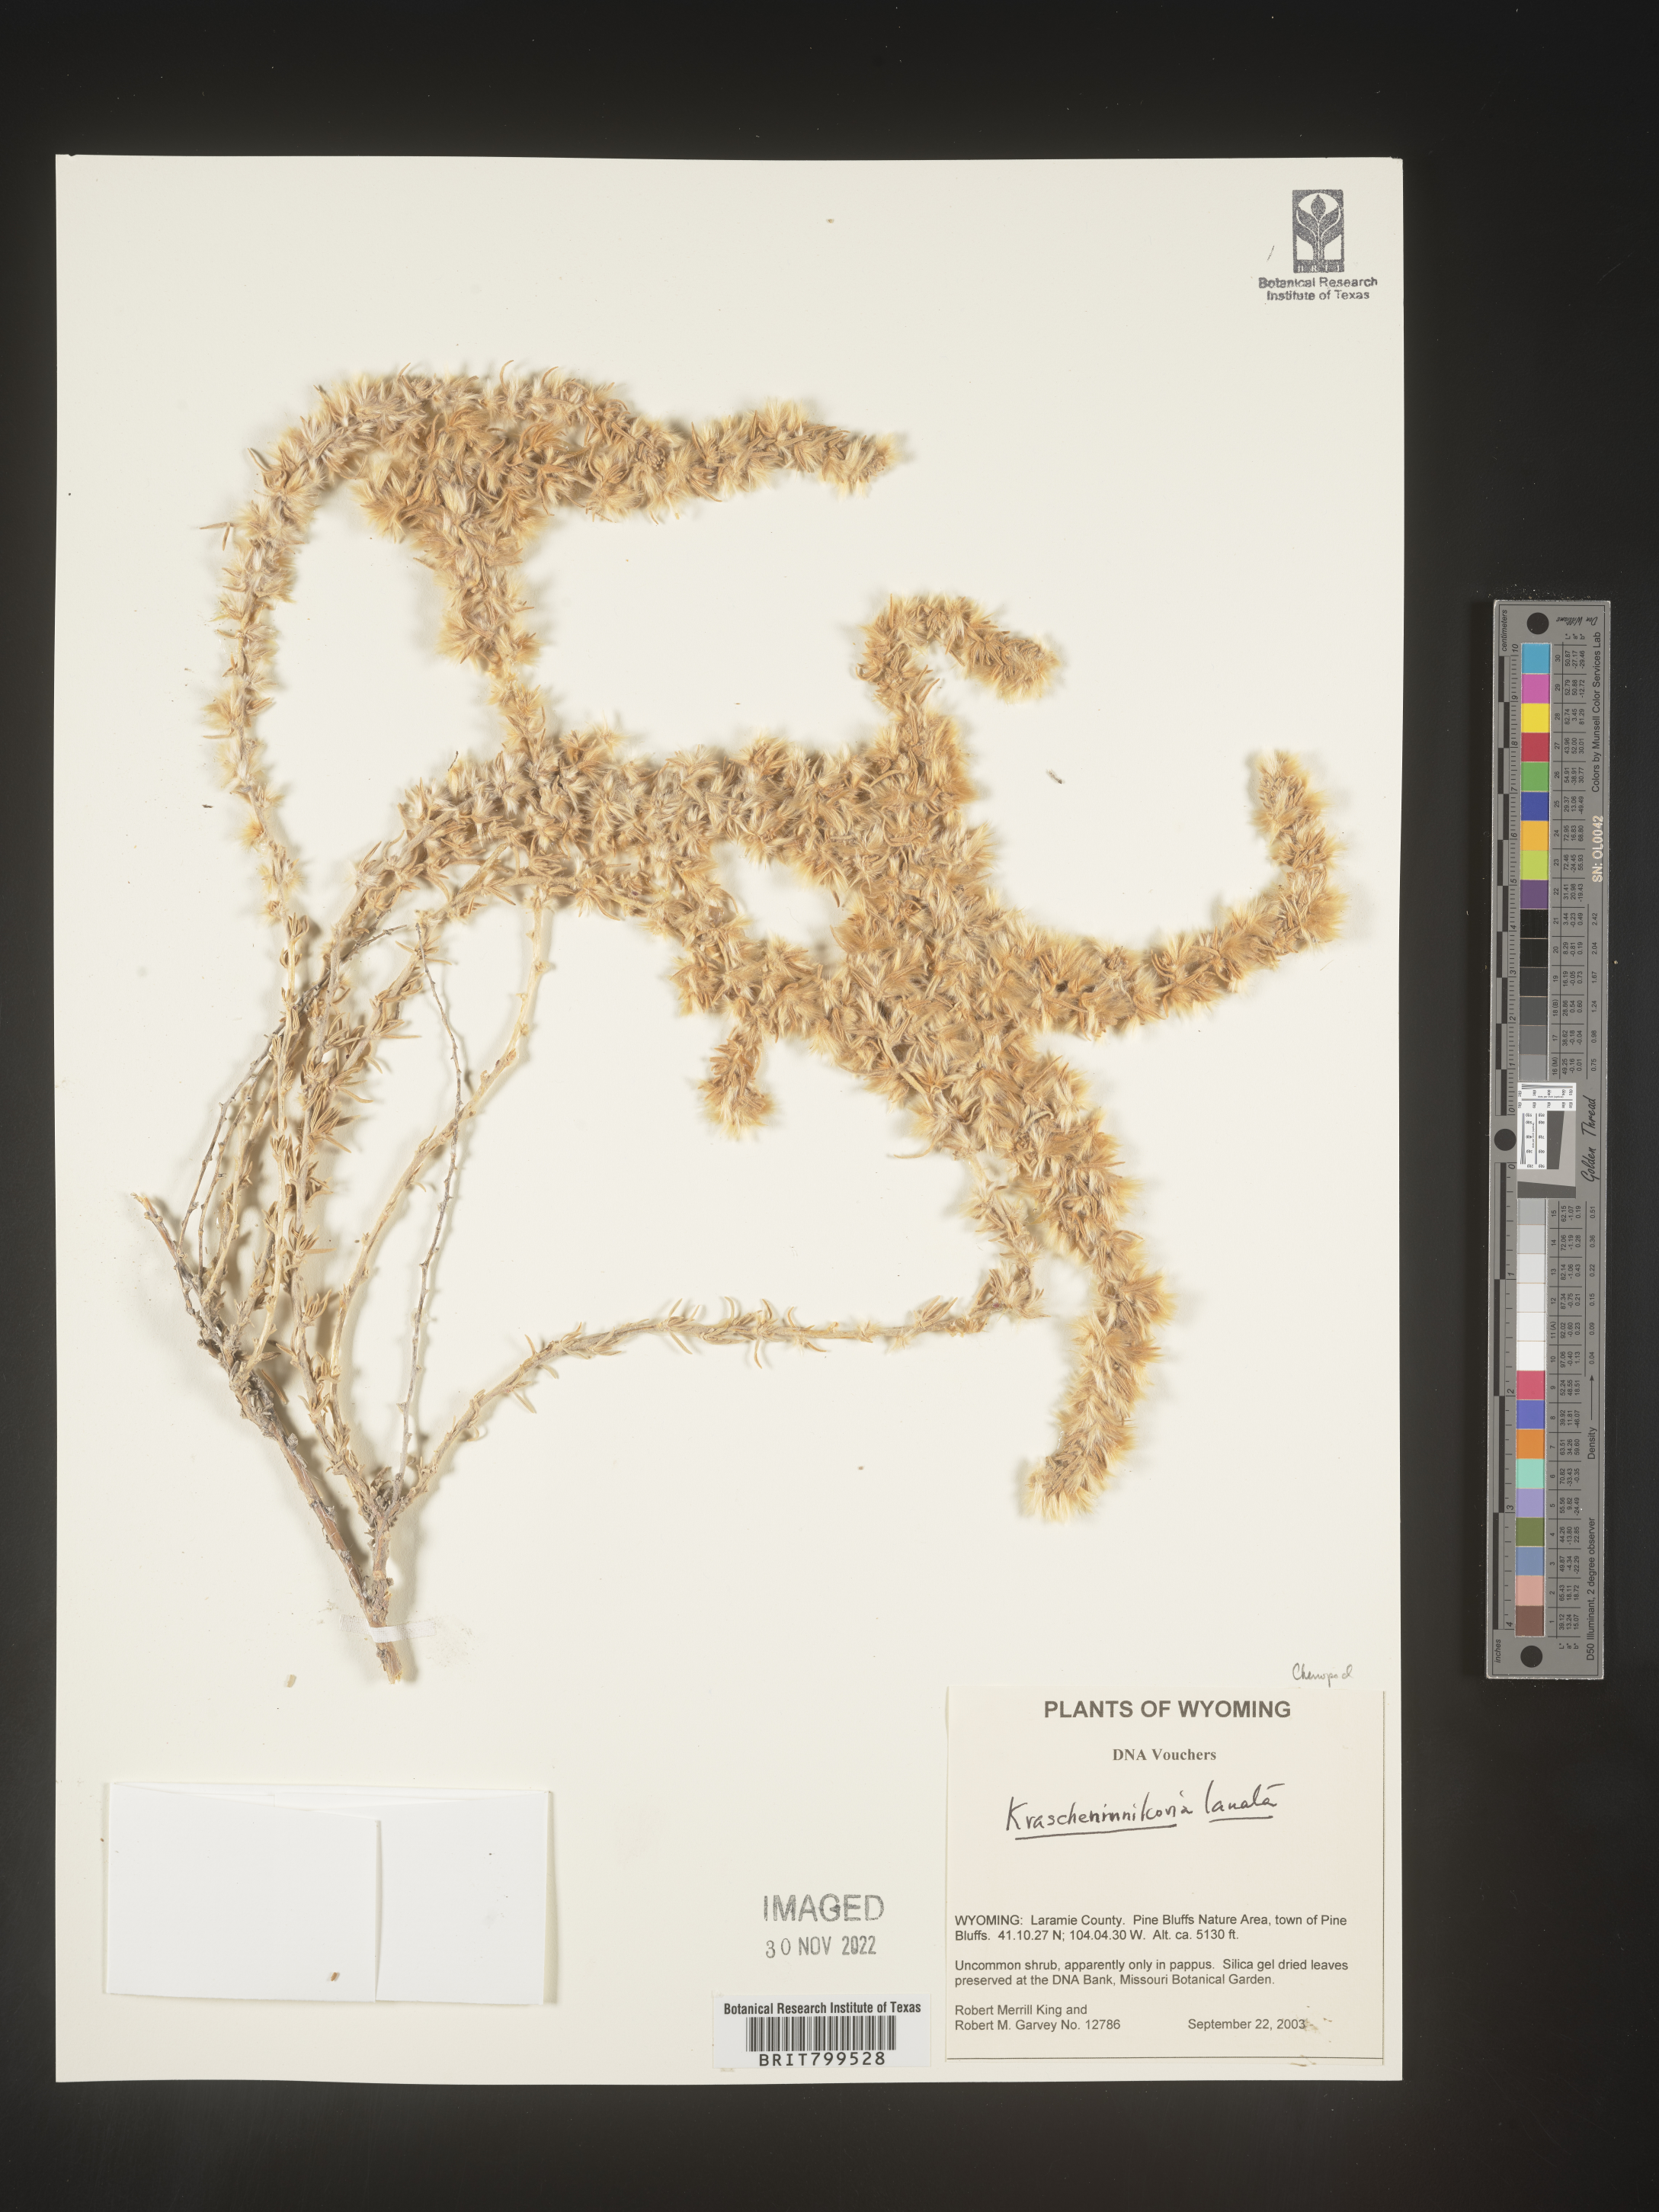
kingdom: Plantae
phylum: Tracheophyta
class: Magnoliopsida
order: Caryophyllales
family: Amaranthaceae
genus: Krascheninnikovia
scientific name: Krascheninnikovia
